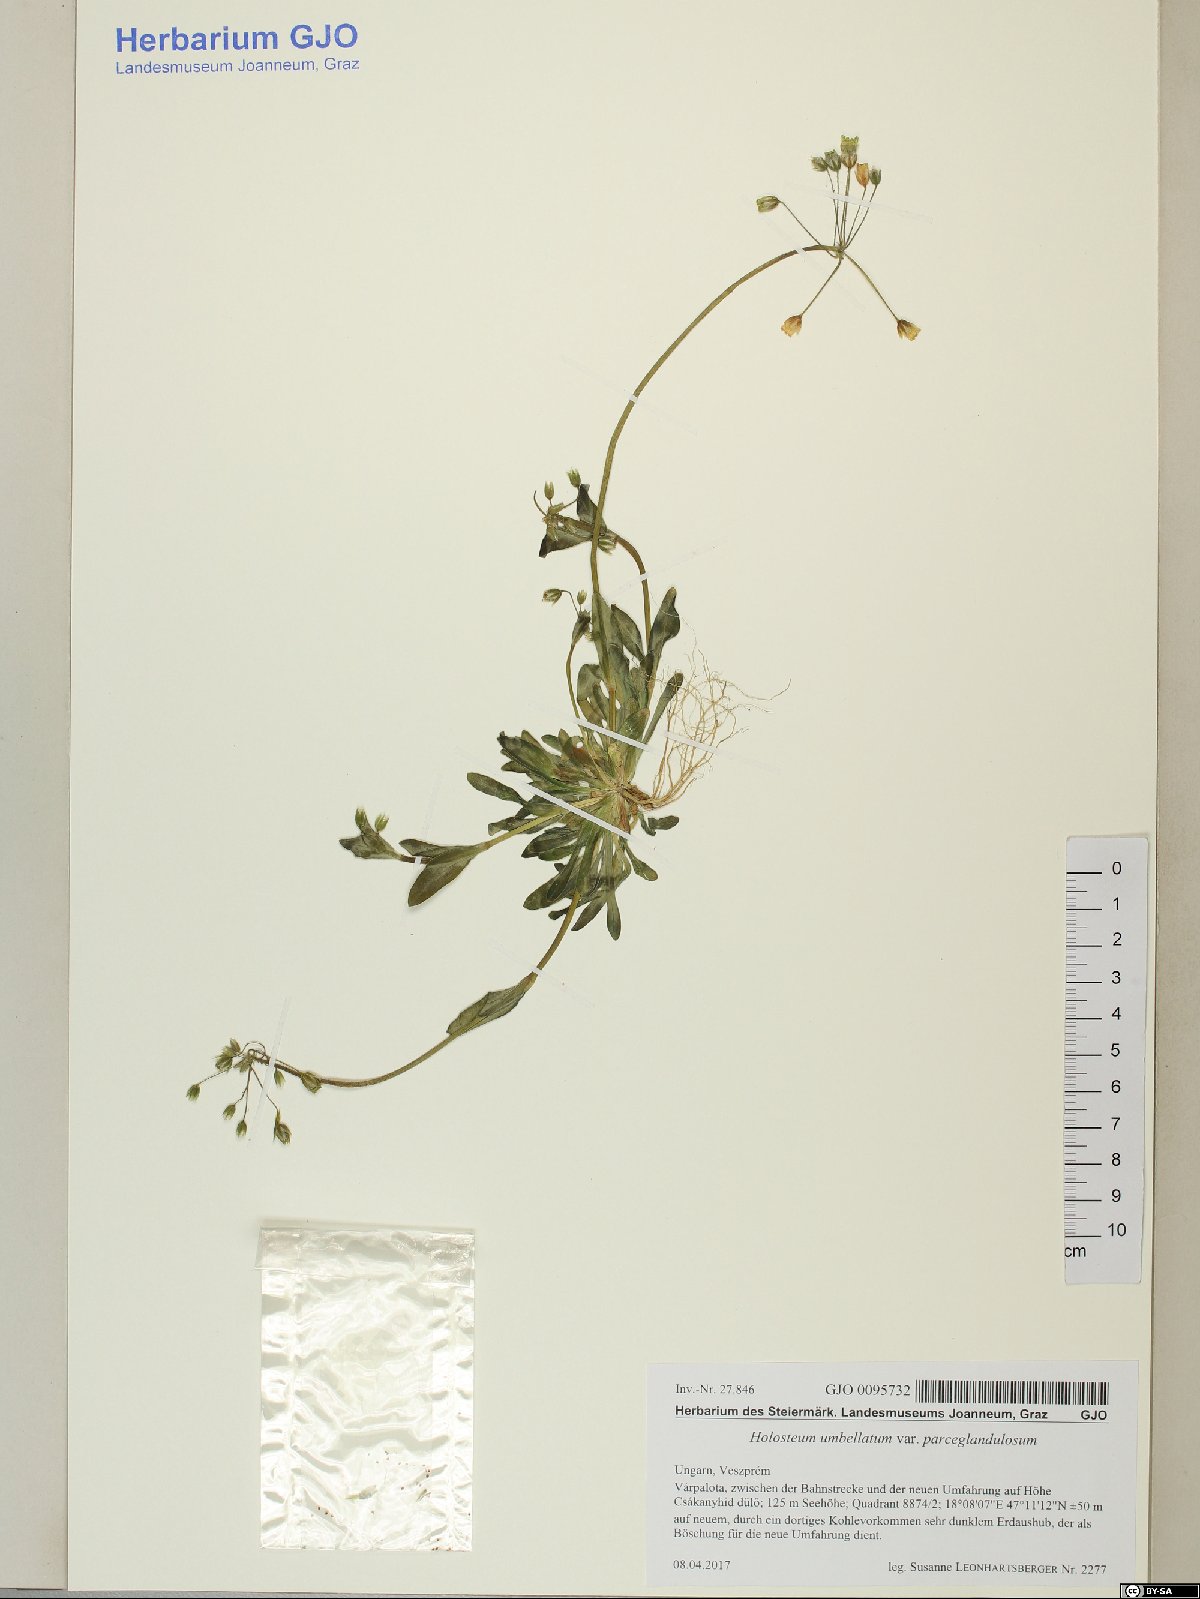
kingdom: Plantae
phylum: Tracheophyta
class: Magnoliopsida
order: Caryophyllales
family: Caryophyllaceae
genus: Holosteum
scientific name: Holosteum umbellatum
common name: Jagged chickweed
